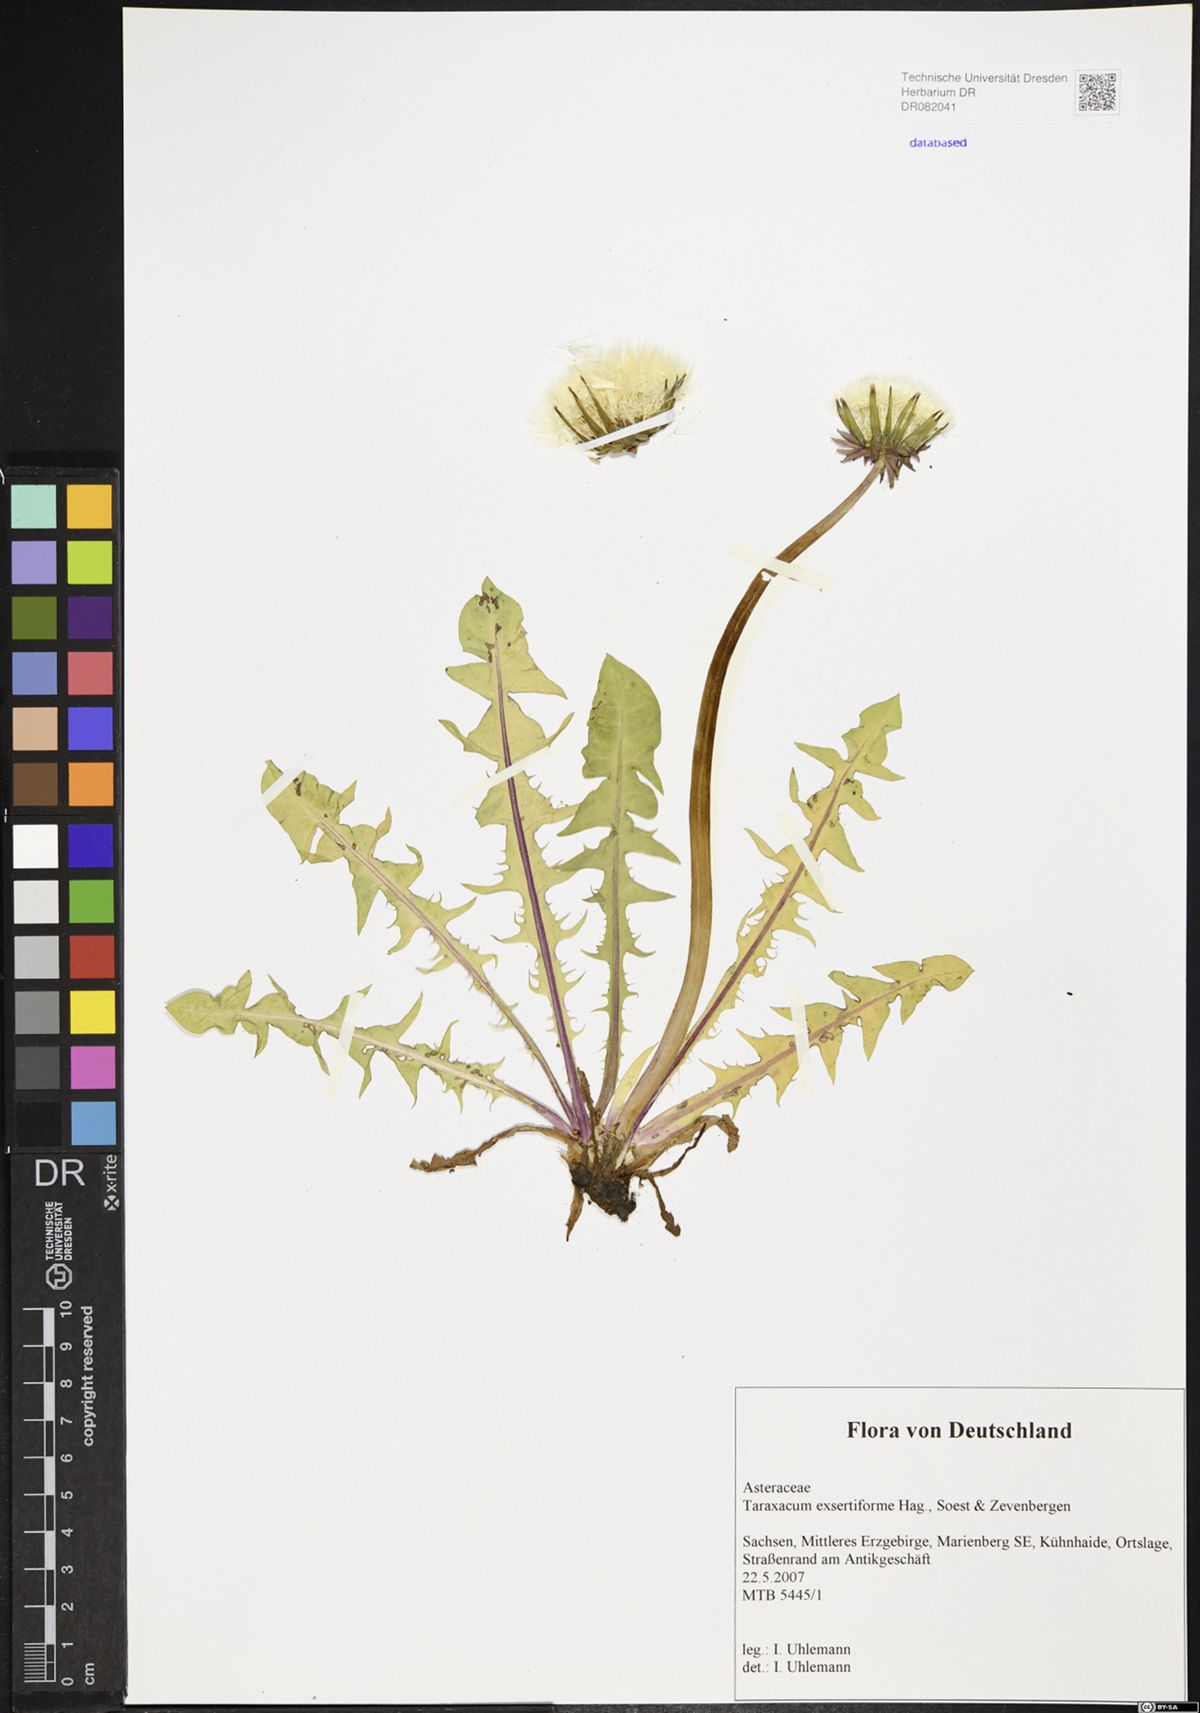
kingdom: Plantae
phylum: Tracheophyta
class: Magnoliopsida
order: Asterales
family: Asteraceae
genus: Taraxacum
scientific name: Taraxacum exsertiforme
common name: Erect-bracted dandelion
